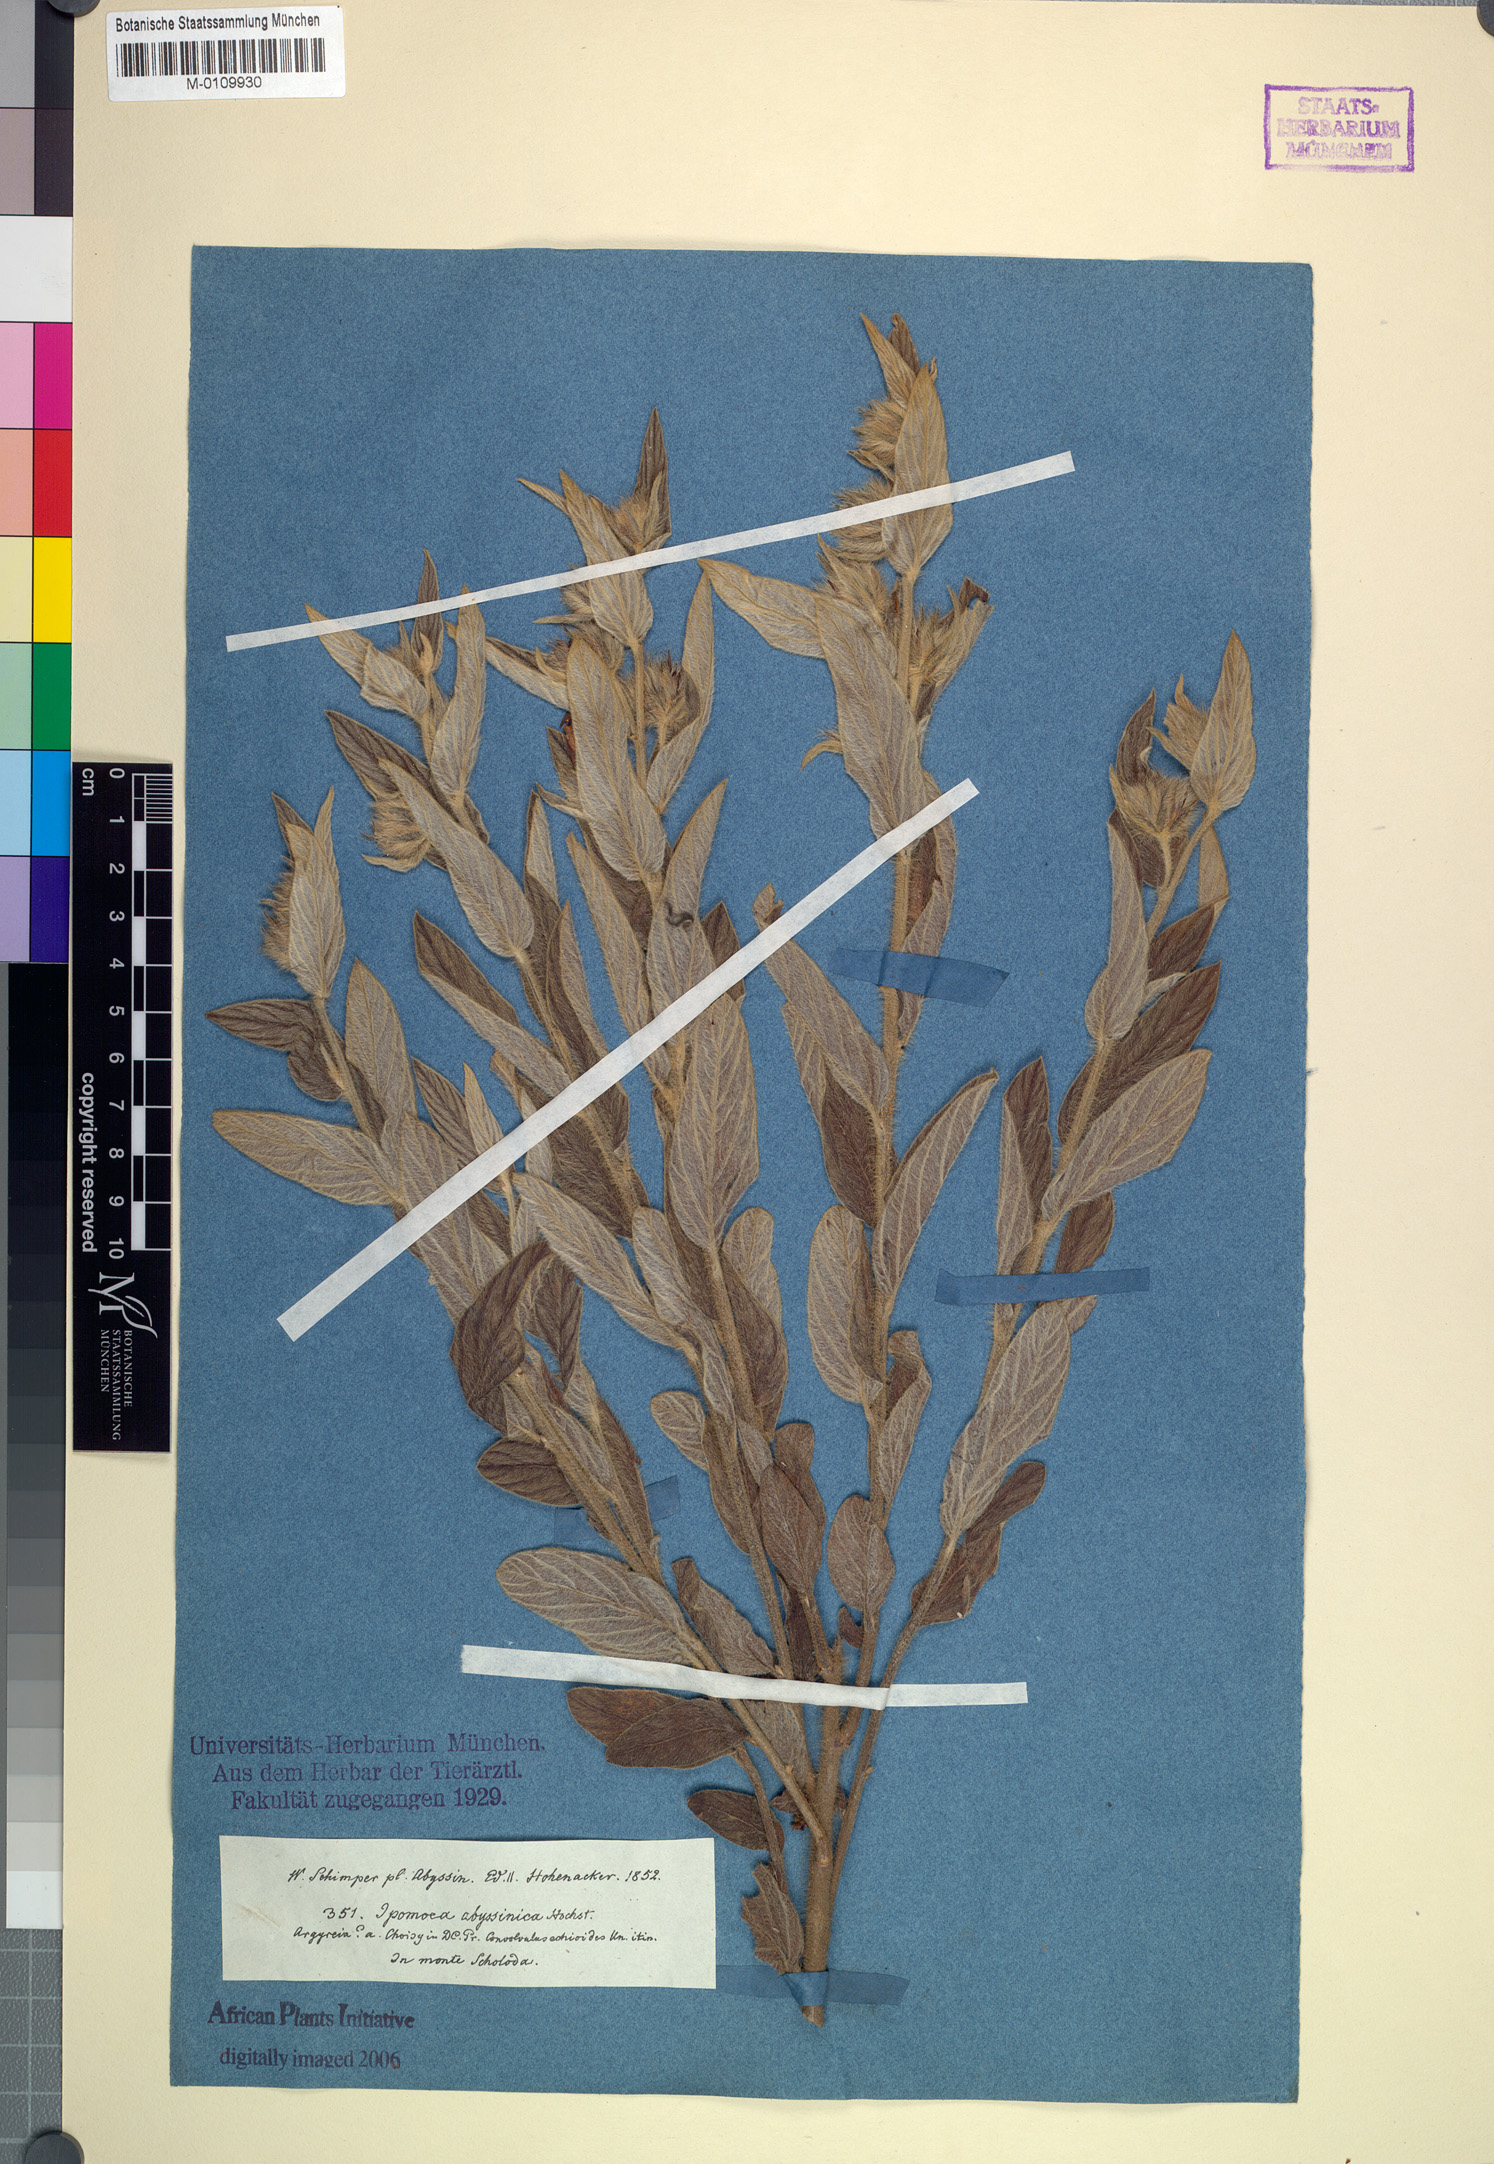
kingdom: Plantae
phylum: Tracheophyta
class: Magnoliopsida
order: Solanales
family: Convolvulaceae
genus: Ipomoea
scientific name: Ipomoea abyssinica
